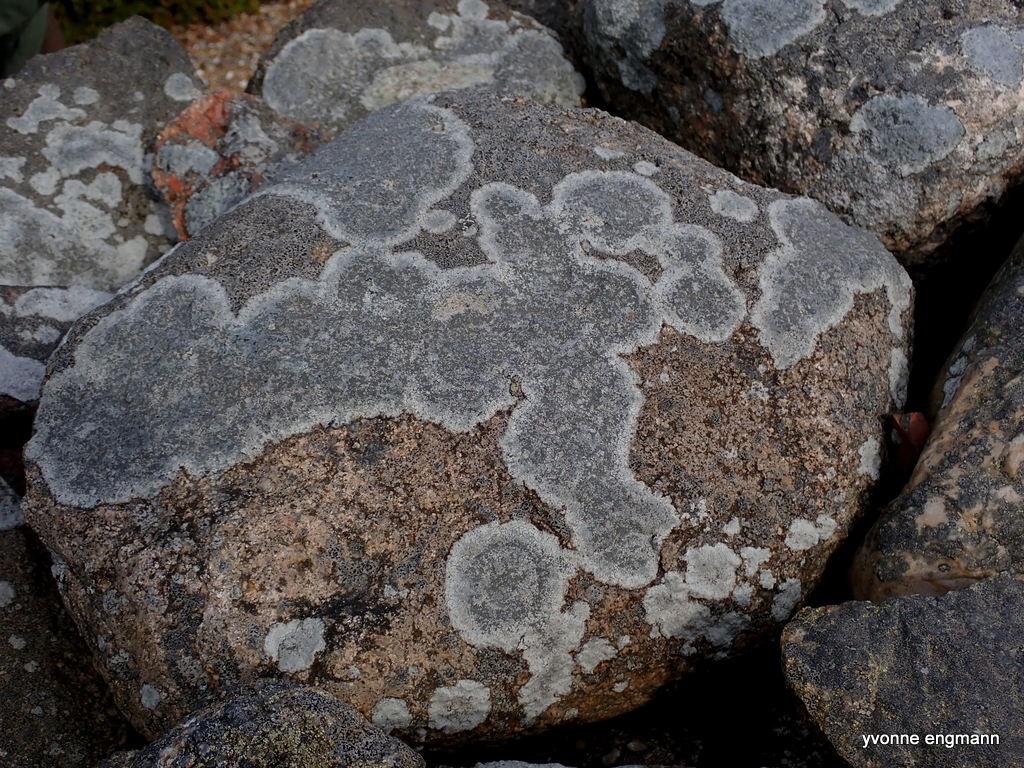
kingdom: Fungi
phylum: Ascomycota
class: Lecanoromycetes
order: Lecideales
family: Lecideaceae
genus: Porpidia
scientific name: Porpidia tuberculosa
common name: broget bredskivelav
